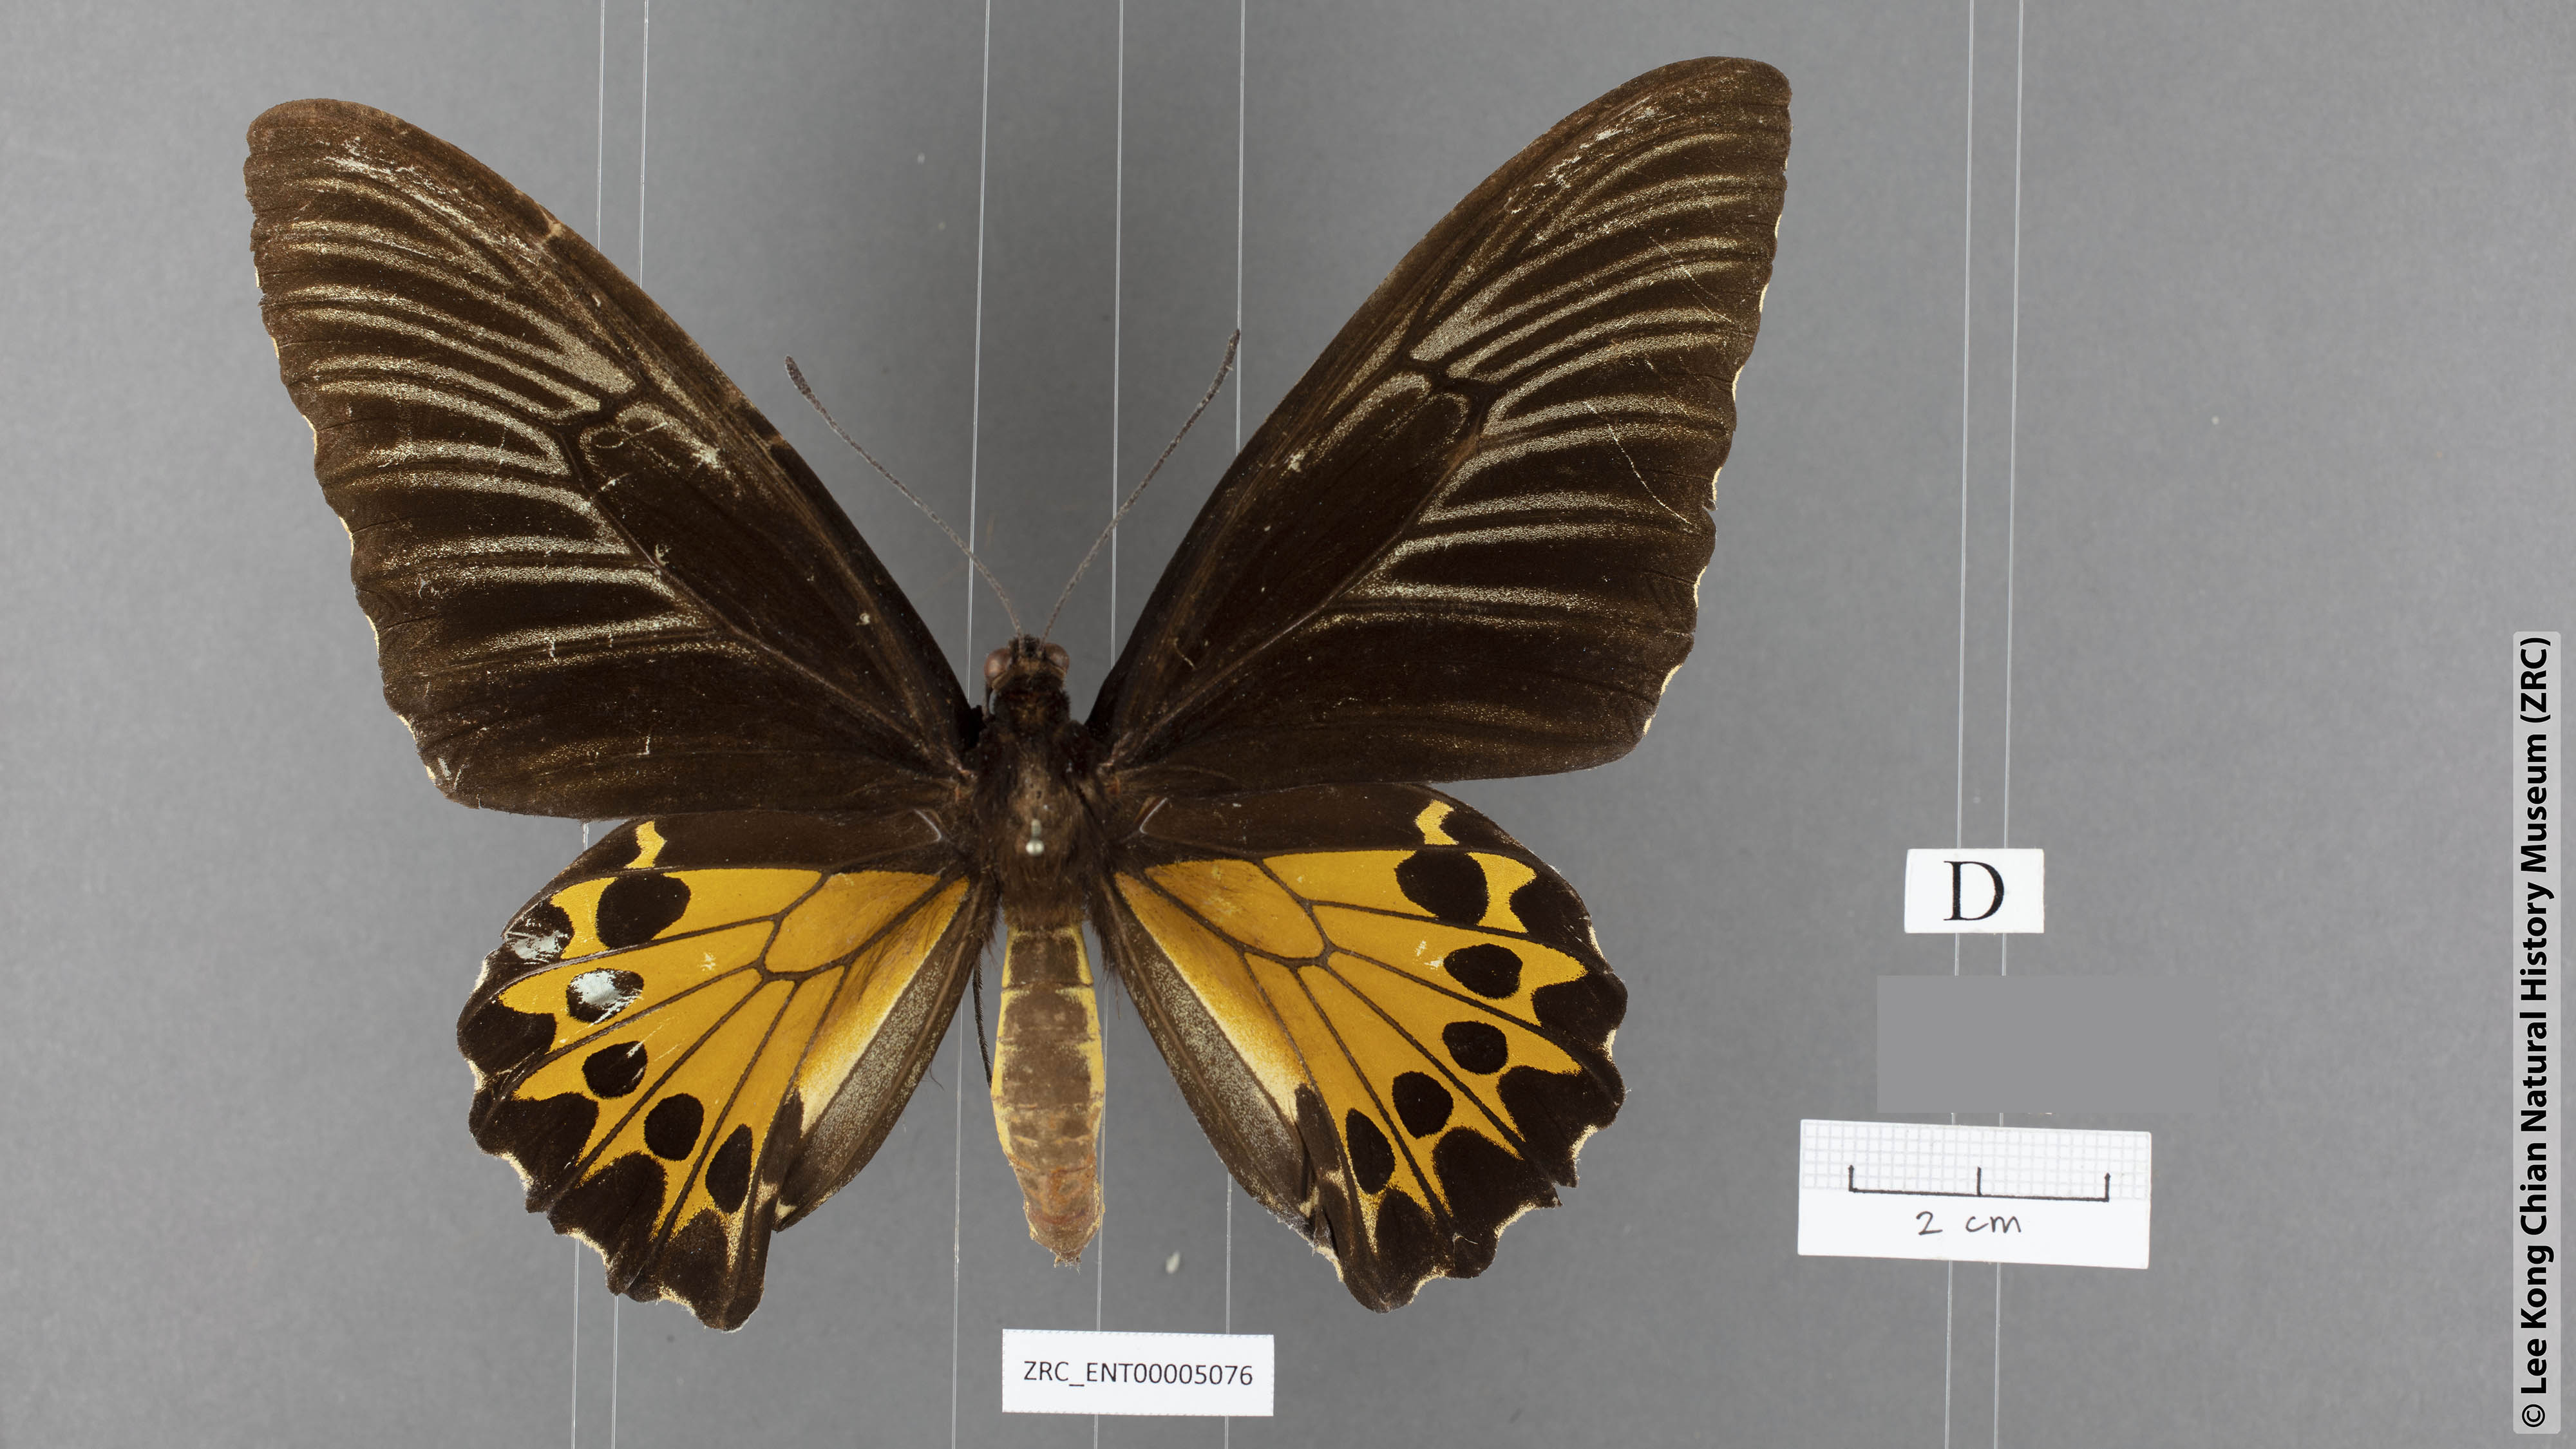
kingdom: Animalia
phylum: Arthropoda
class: Insecta
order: Lepidoptera
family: Papilionidae
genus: Troides
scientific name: Troides helena
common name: Common birdwing
